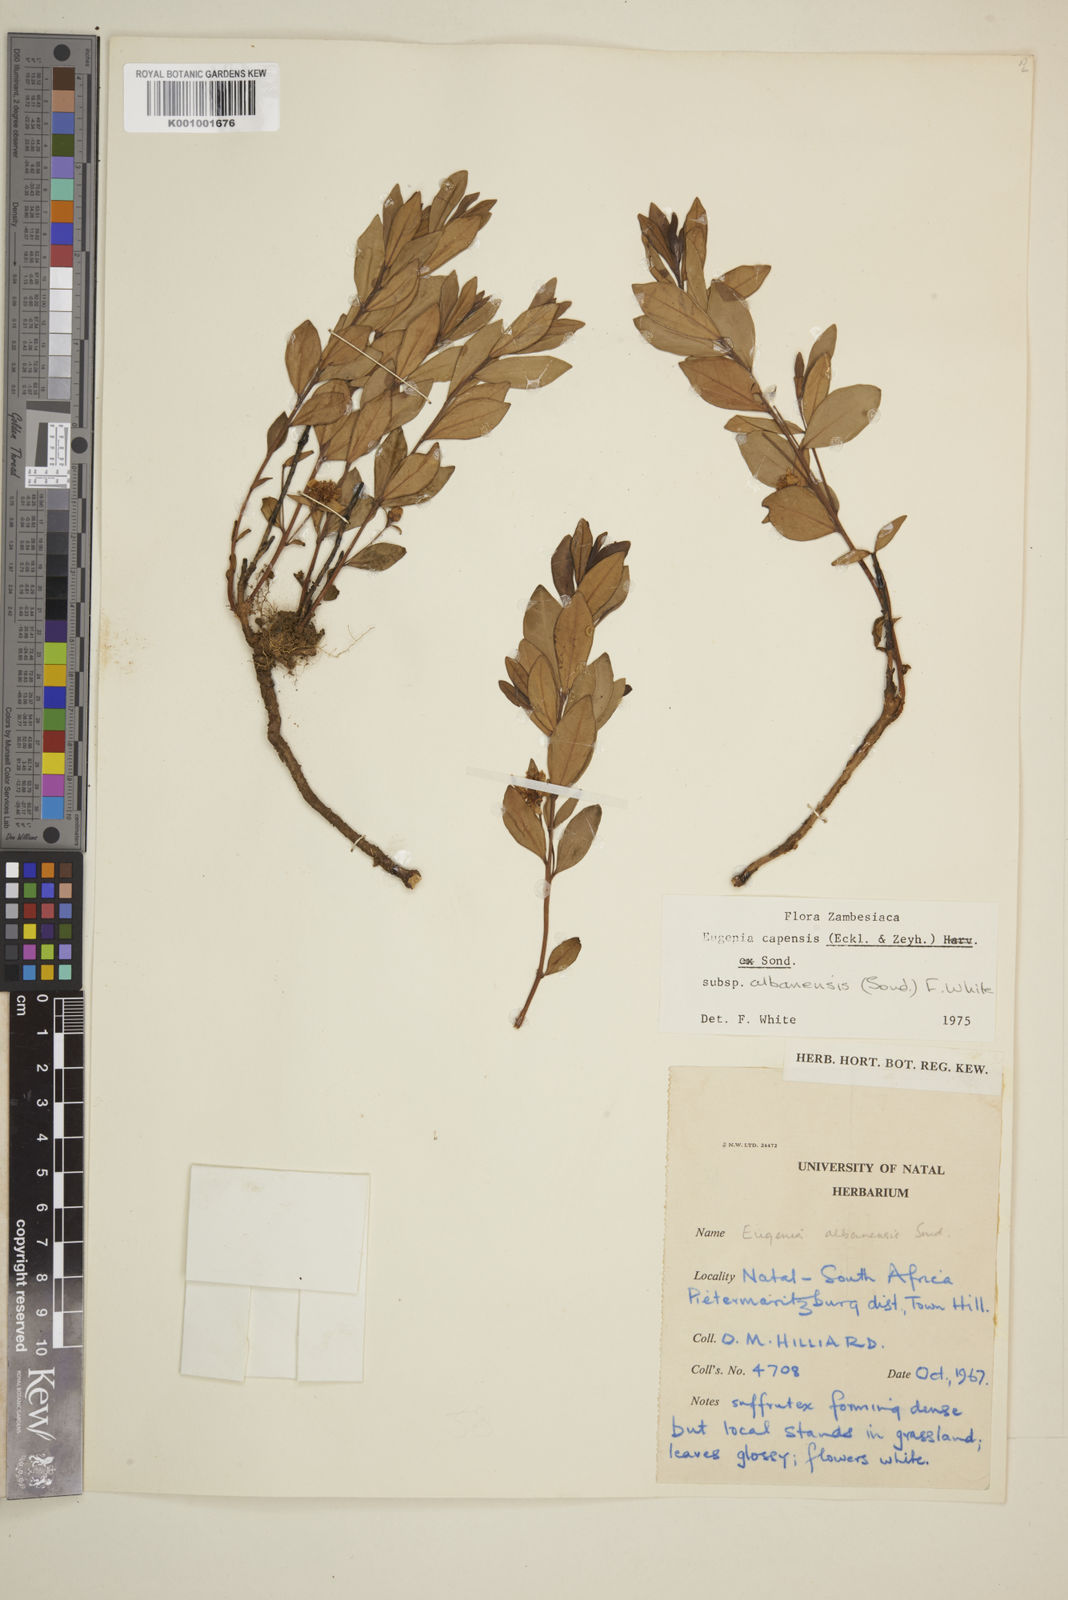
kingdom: Plantae
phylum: Tracheophyta
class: Magnoliopsida
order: Myrtales
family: Myrtaceae
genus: Eugenia
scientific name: Eugenia capensis
